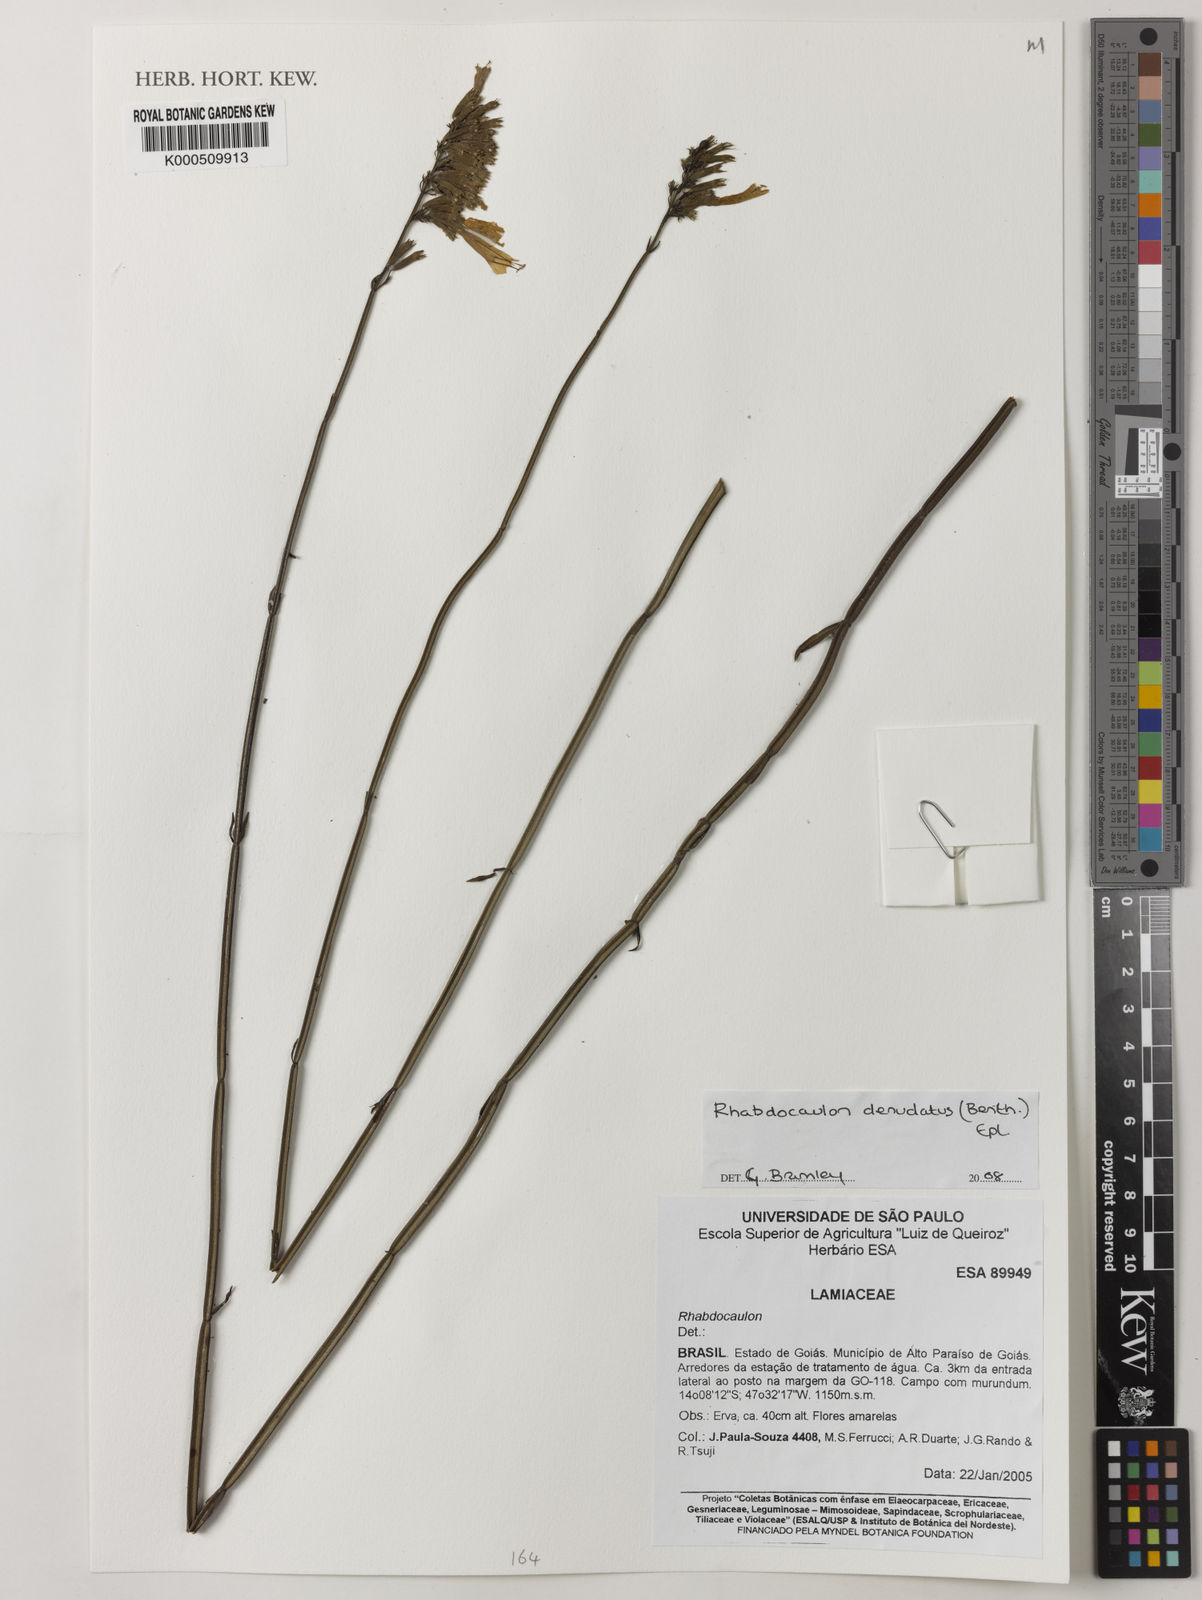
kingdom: Plantae
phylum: Tracheophyta
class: Magnoliopsida
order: Lamiales
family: Lamiaceae
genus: Rhabdocaulon
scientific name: Rhabdocaulon denudatum
